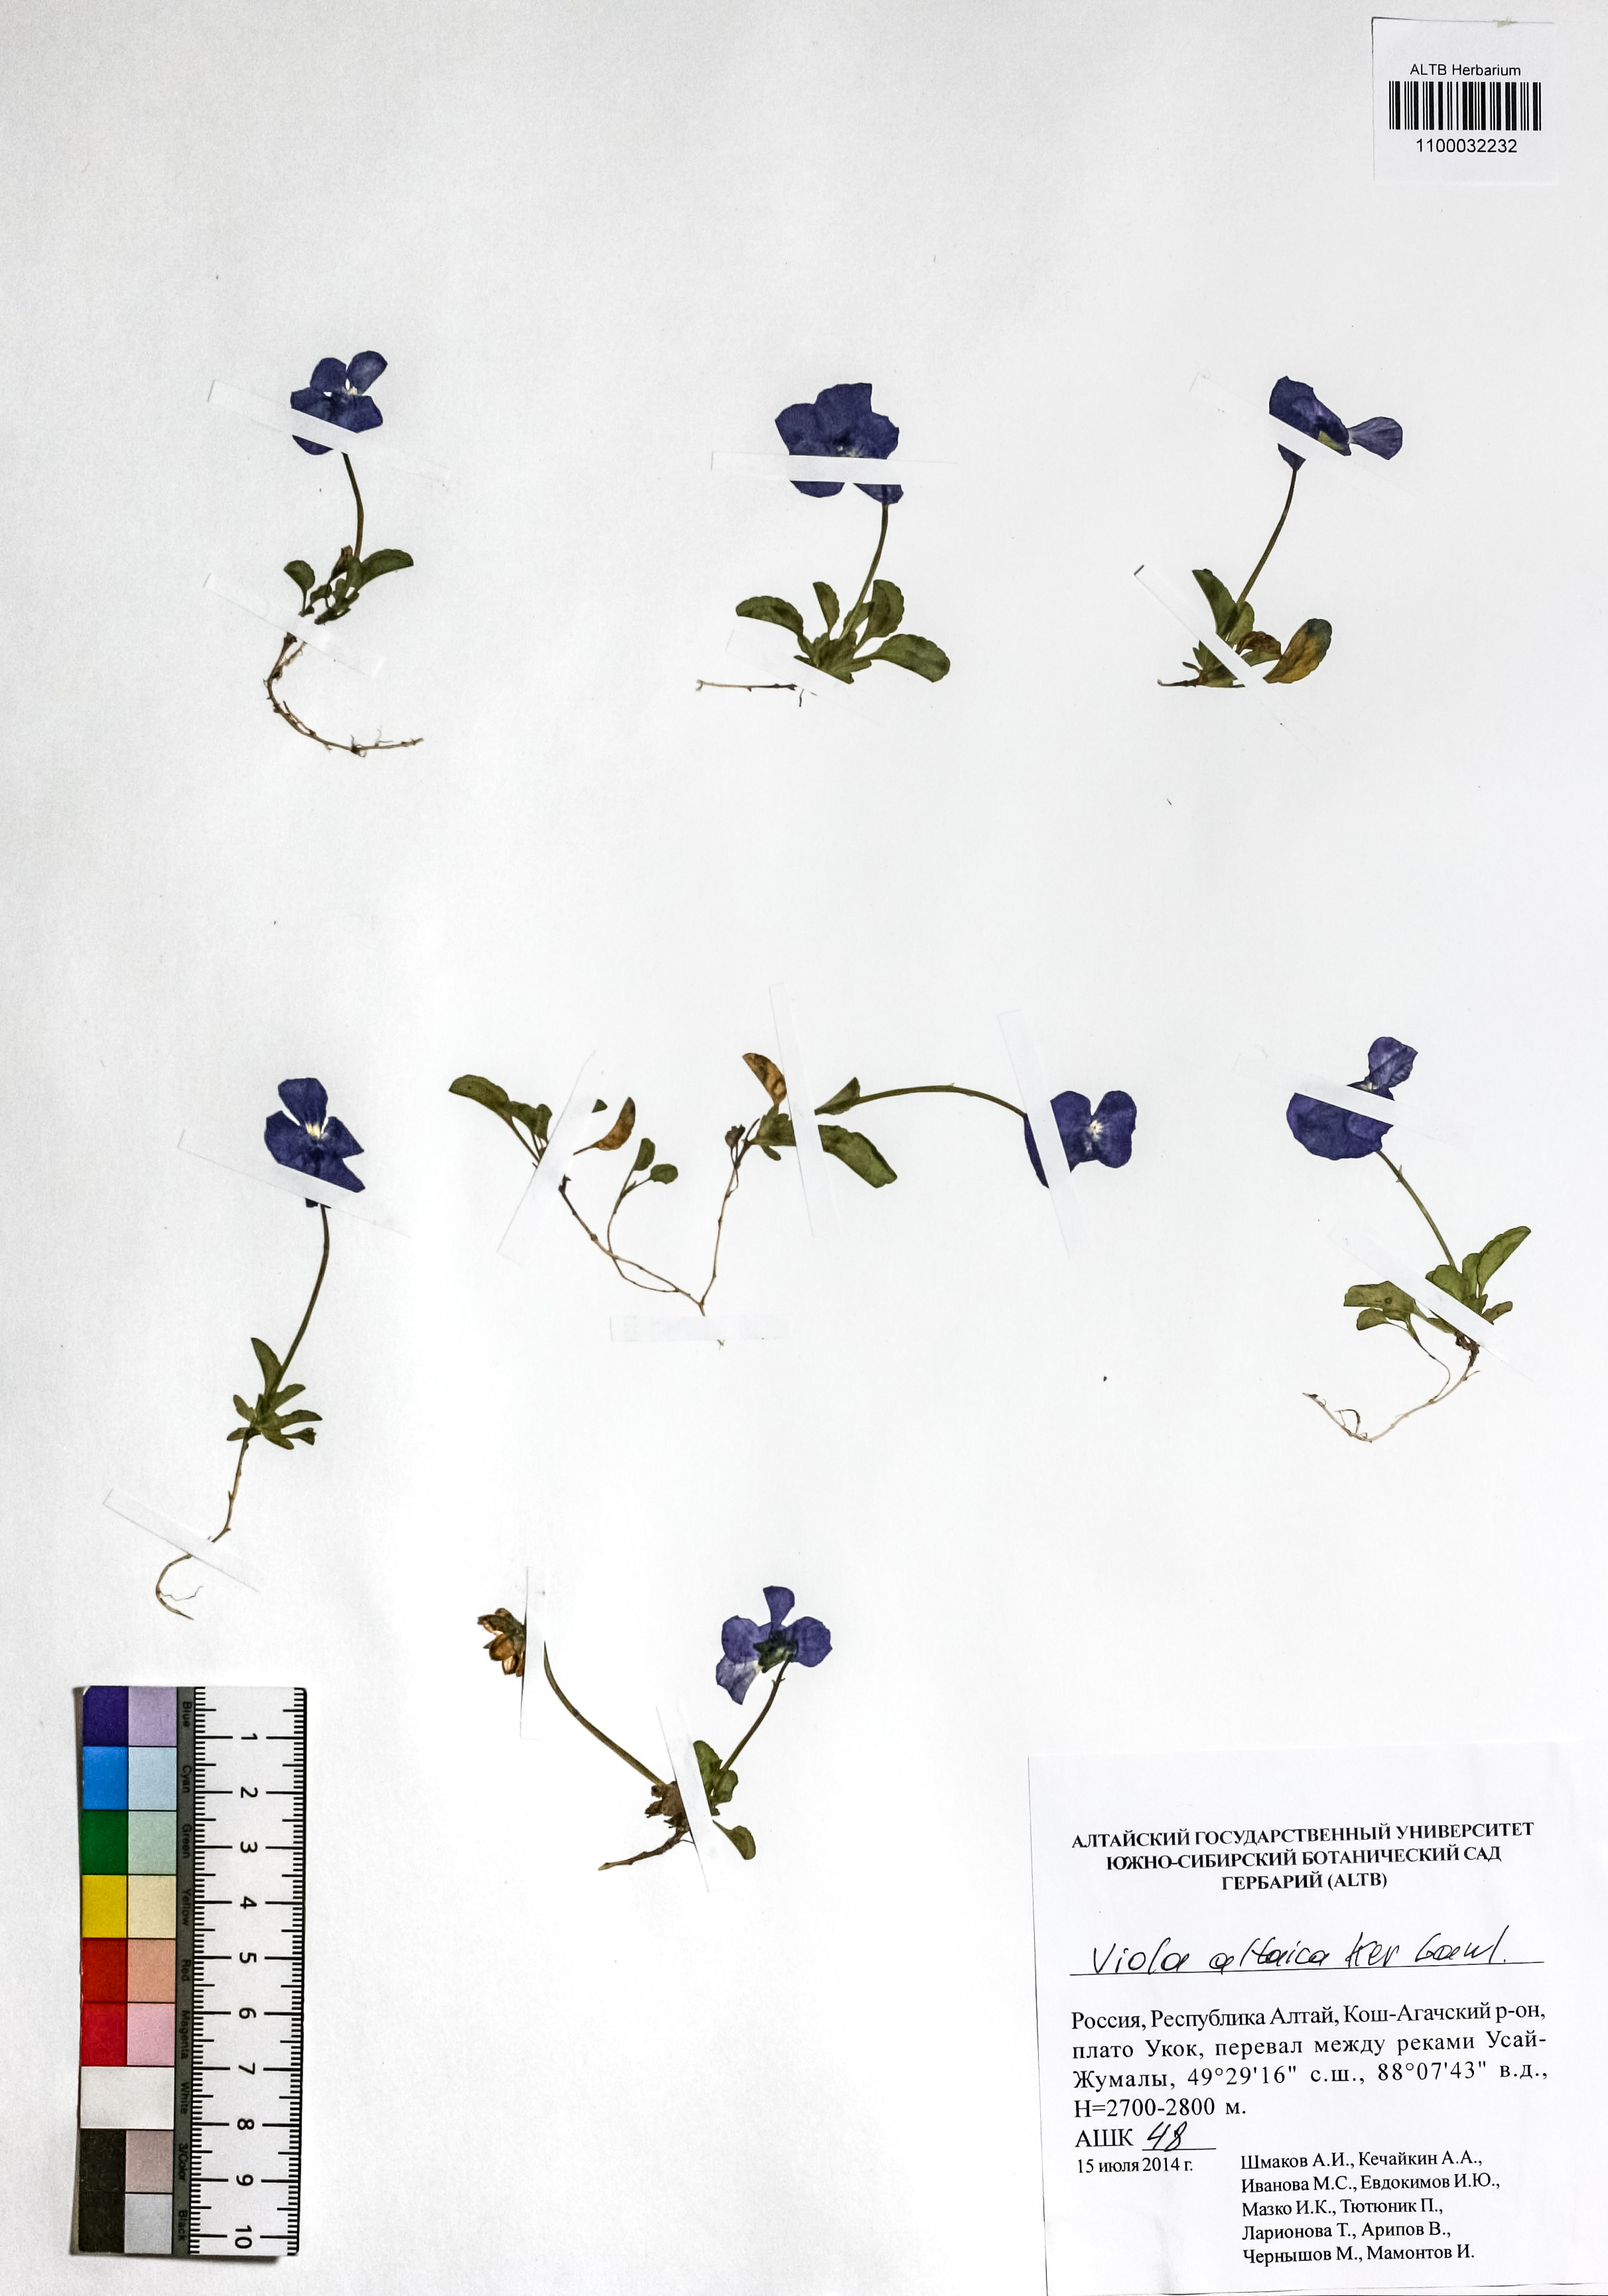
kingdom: Plantae
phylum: Tracheophyta
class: Magnoliopsida
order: Malpighiales
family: Violaceae
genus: Viola
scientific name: Viola altaica
